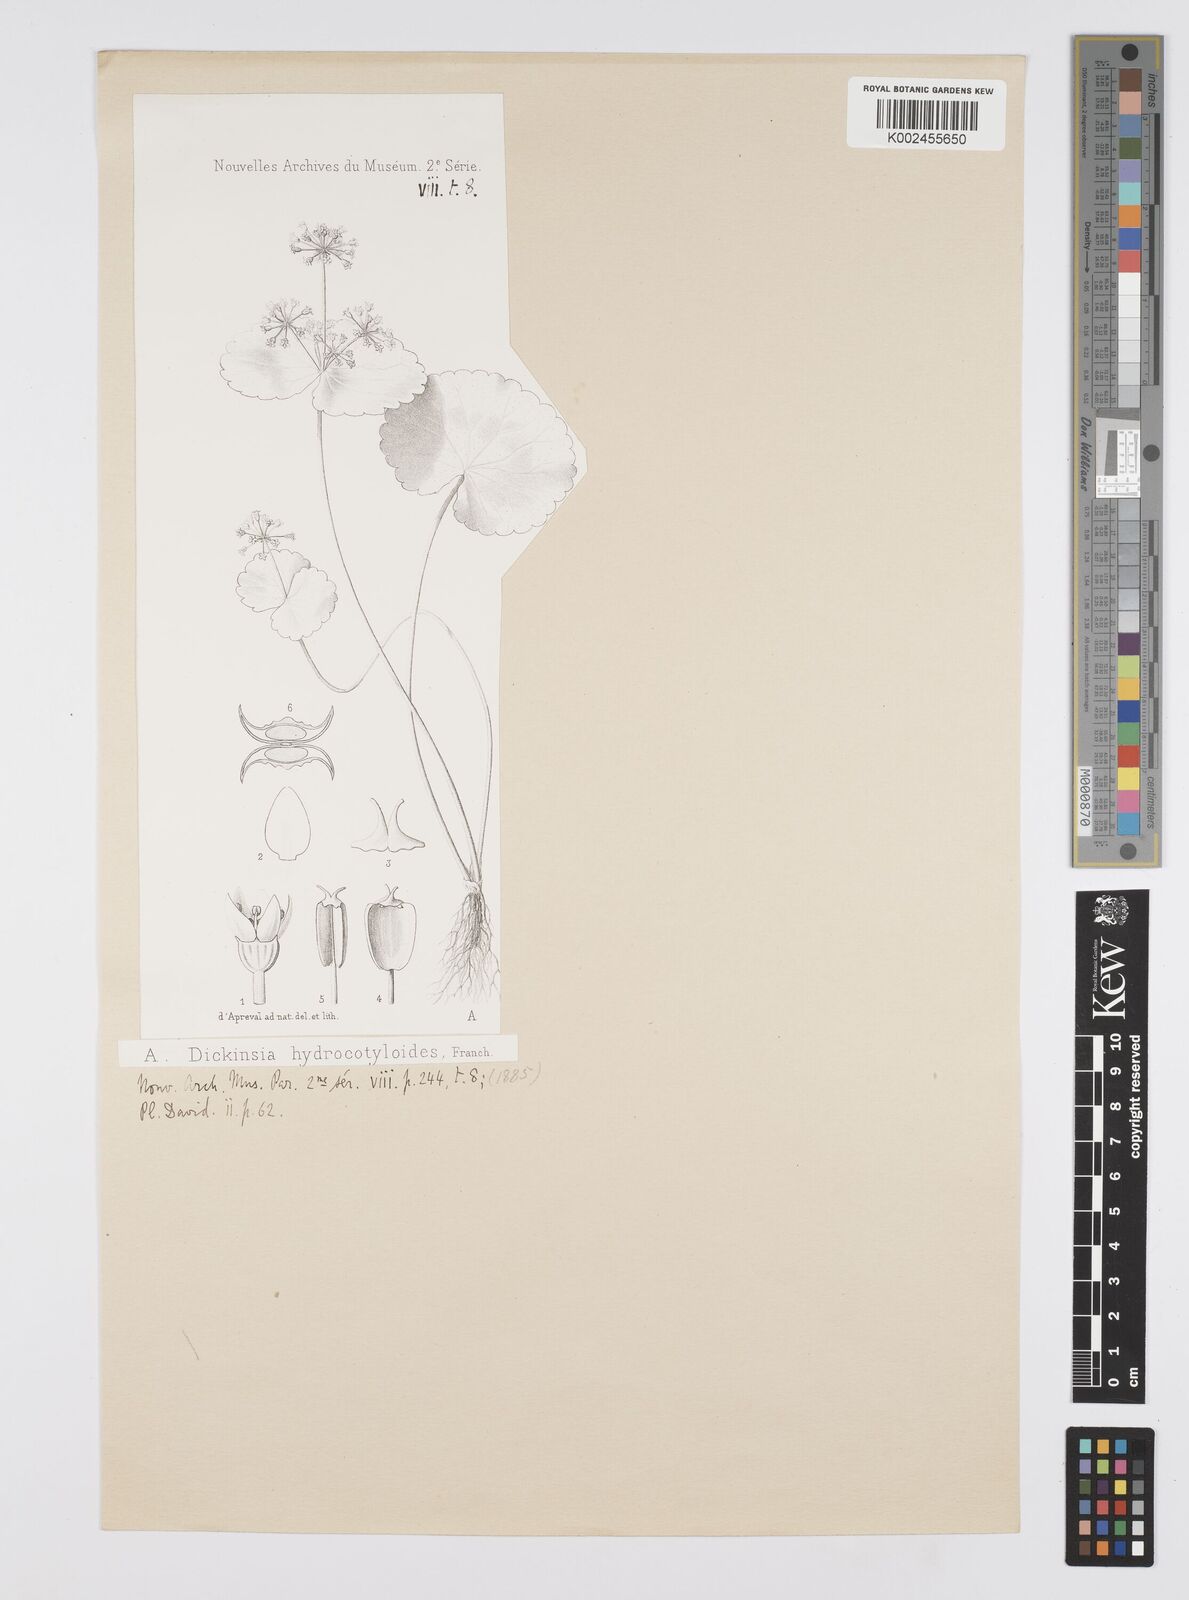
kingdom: Plantae
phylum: Tracheophyta
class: Magnoliopsida
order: Apiales
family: Apiaceae
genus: Dickinsia
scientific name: Dickinsia hydrocotyloides
